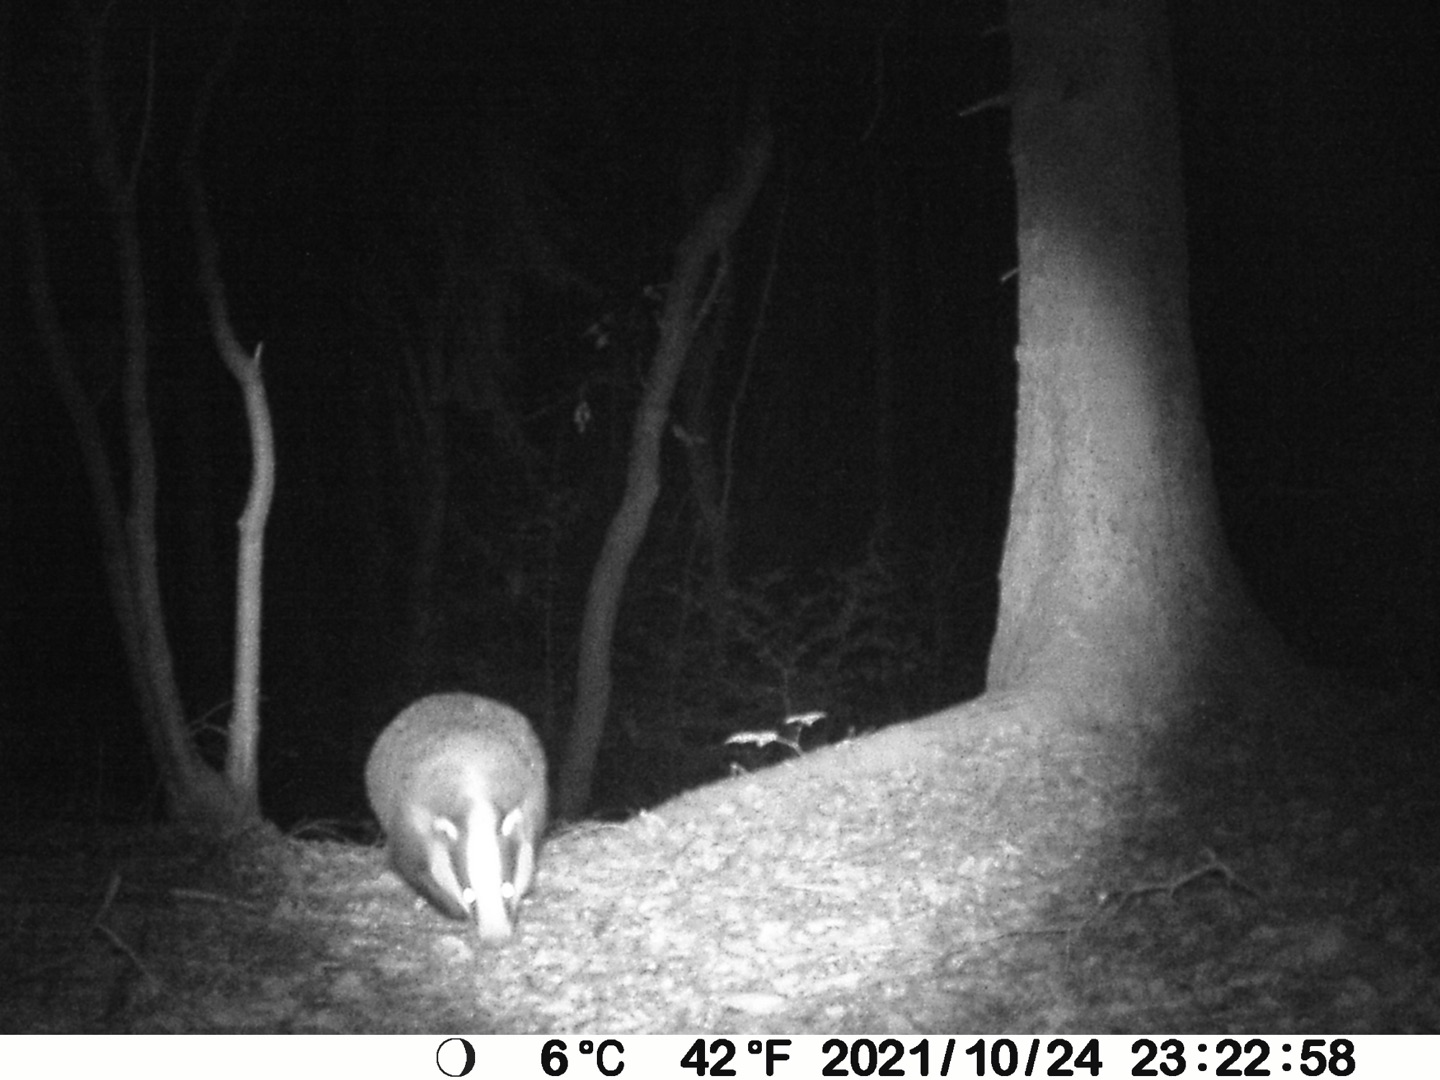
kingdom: Animalia
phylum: Chordata
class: Mammalia
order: Carnivora
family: Mustelidae
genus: Meles
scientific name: Meles meles
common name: Grævling
